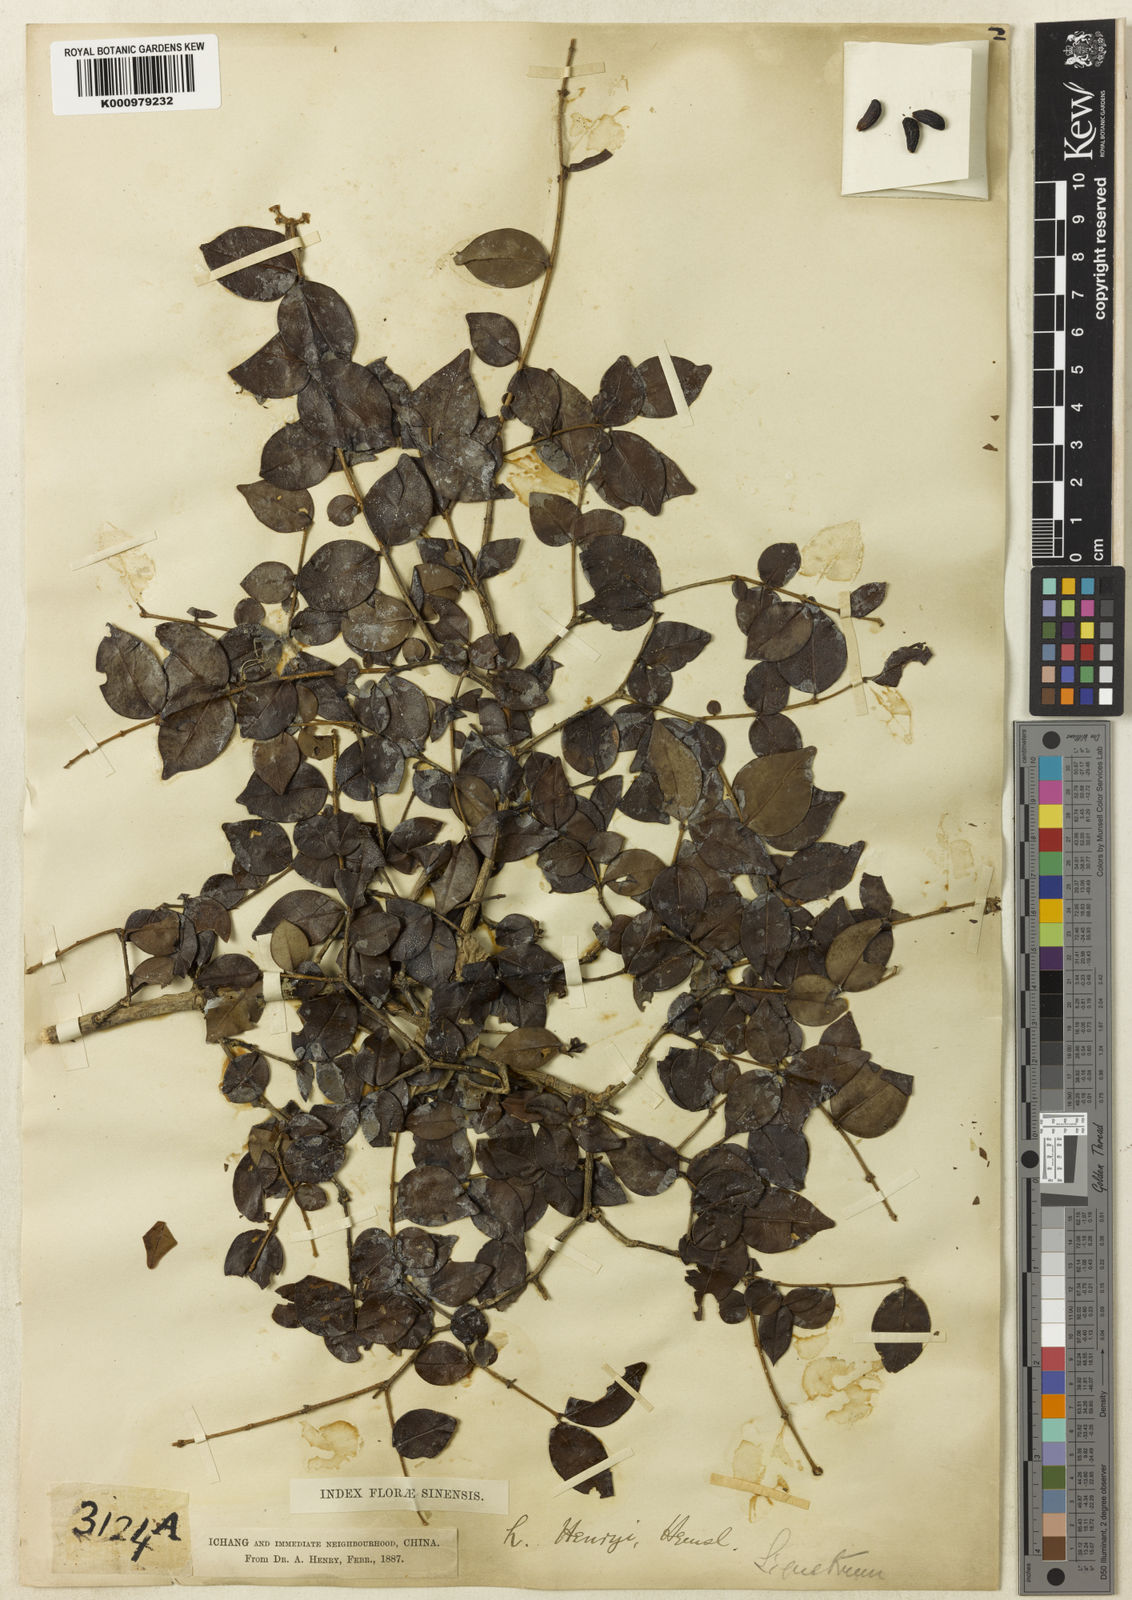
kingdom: Plantae
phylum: Tracheophyta
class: Magnoliopsida
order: Lamiales
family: Oleaceae
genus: Ligustrum
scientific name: Ligustrum henryi
